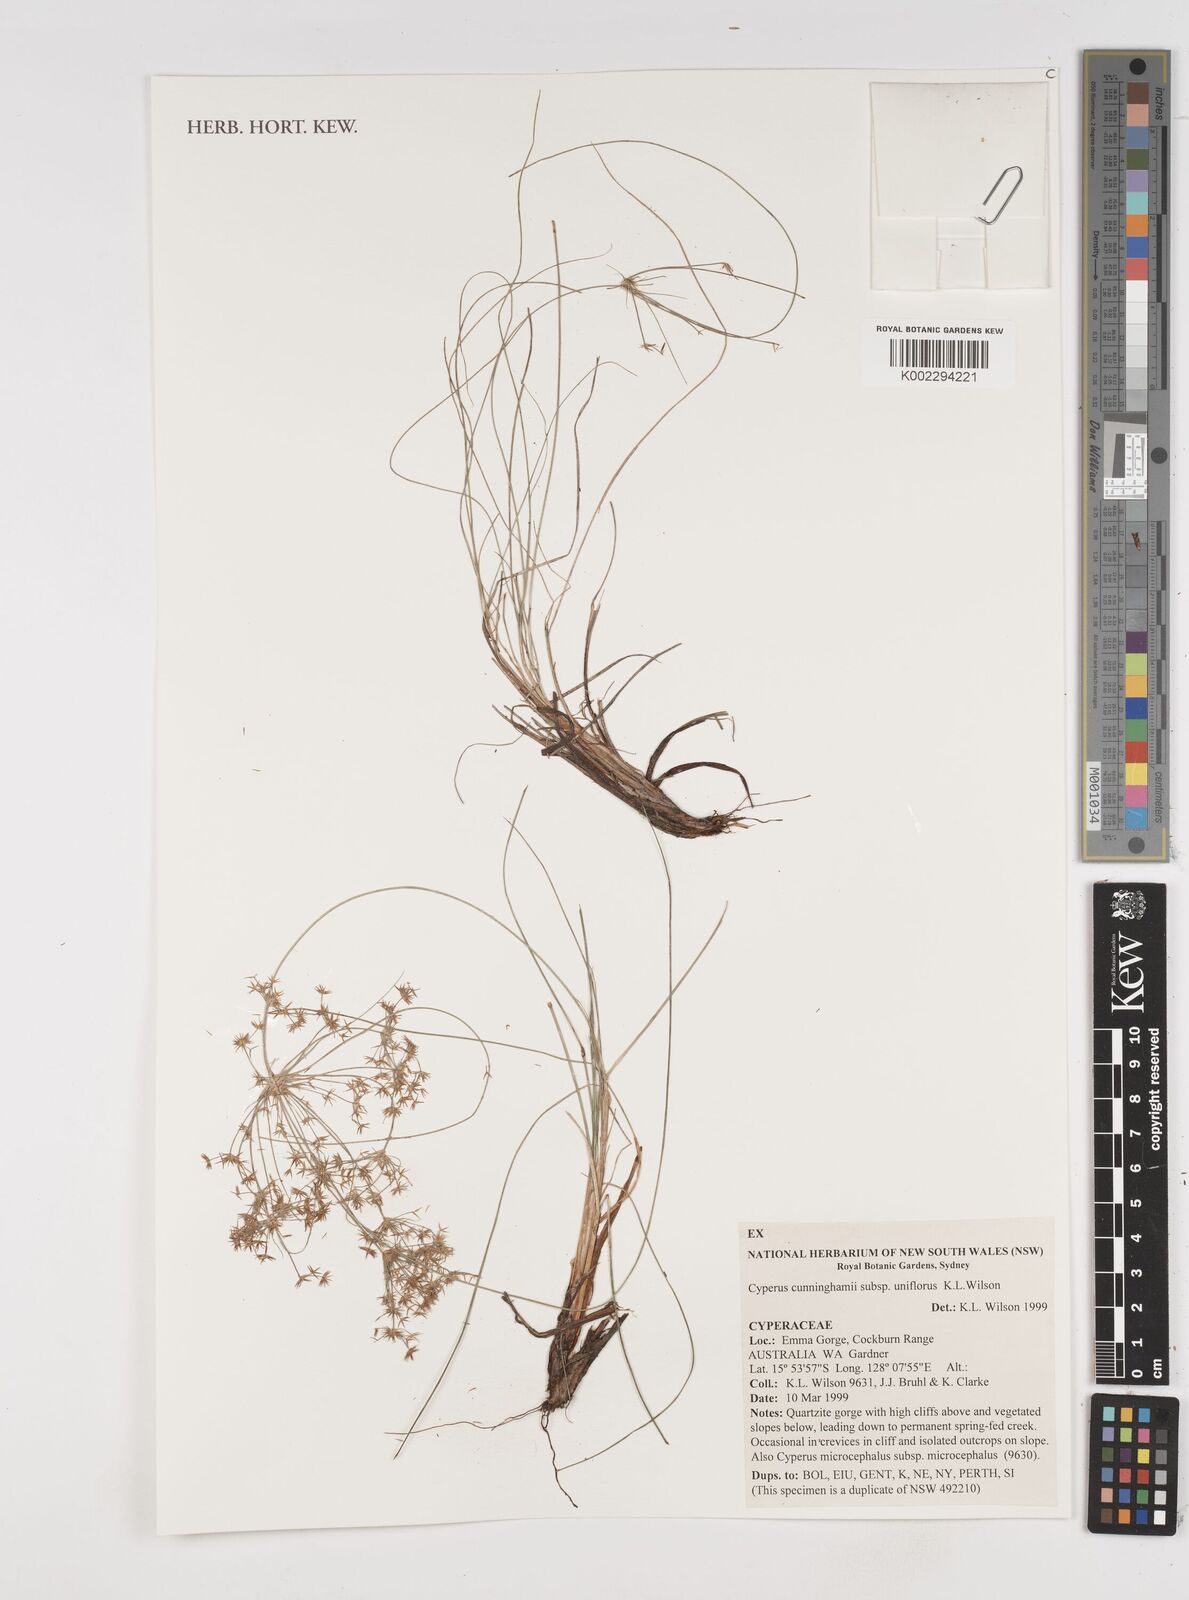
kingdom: Plantae
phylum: Tracheophyta
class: Liliopsida
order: Poales
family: Cyperaceae
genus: Cyperus
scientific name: Cyperus cunninghamii
